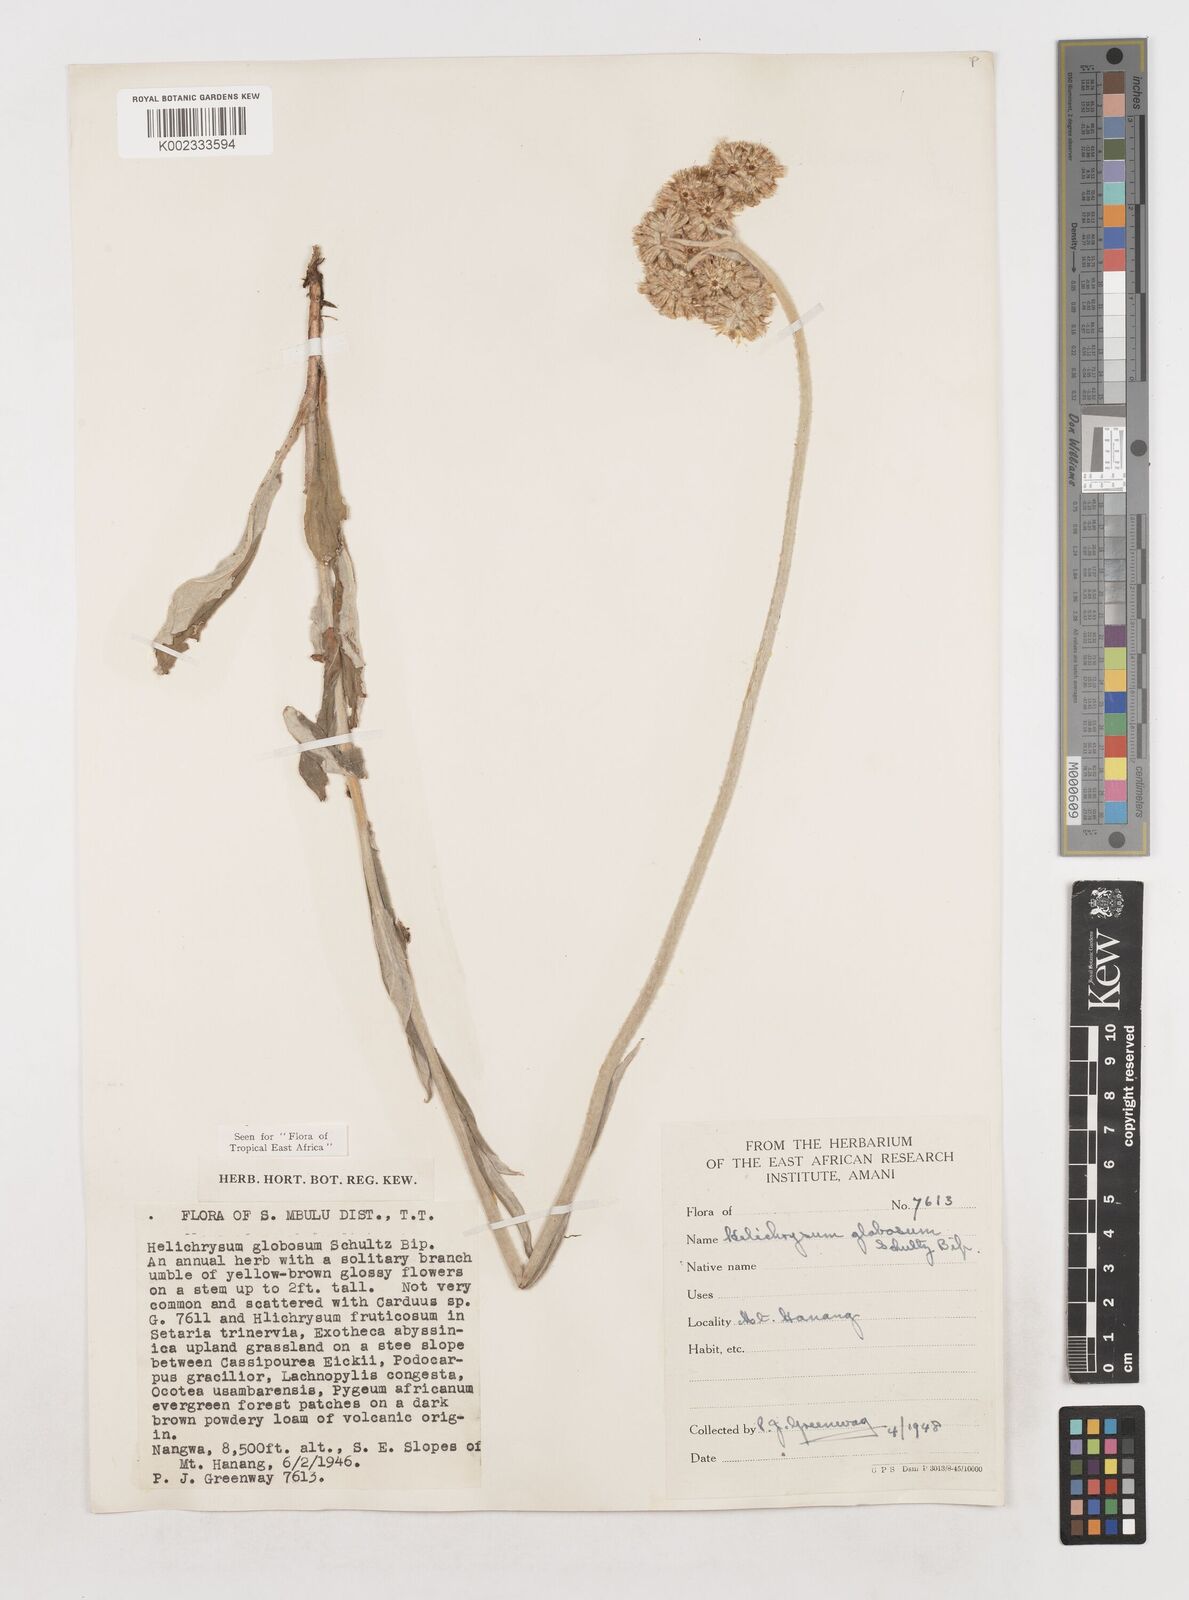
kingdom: Plantae
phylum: Tracheophyta
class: Magnoliopsida
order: Asterales
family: Asteraceae
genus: Helichrysum
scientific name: Helichrysum globosum
